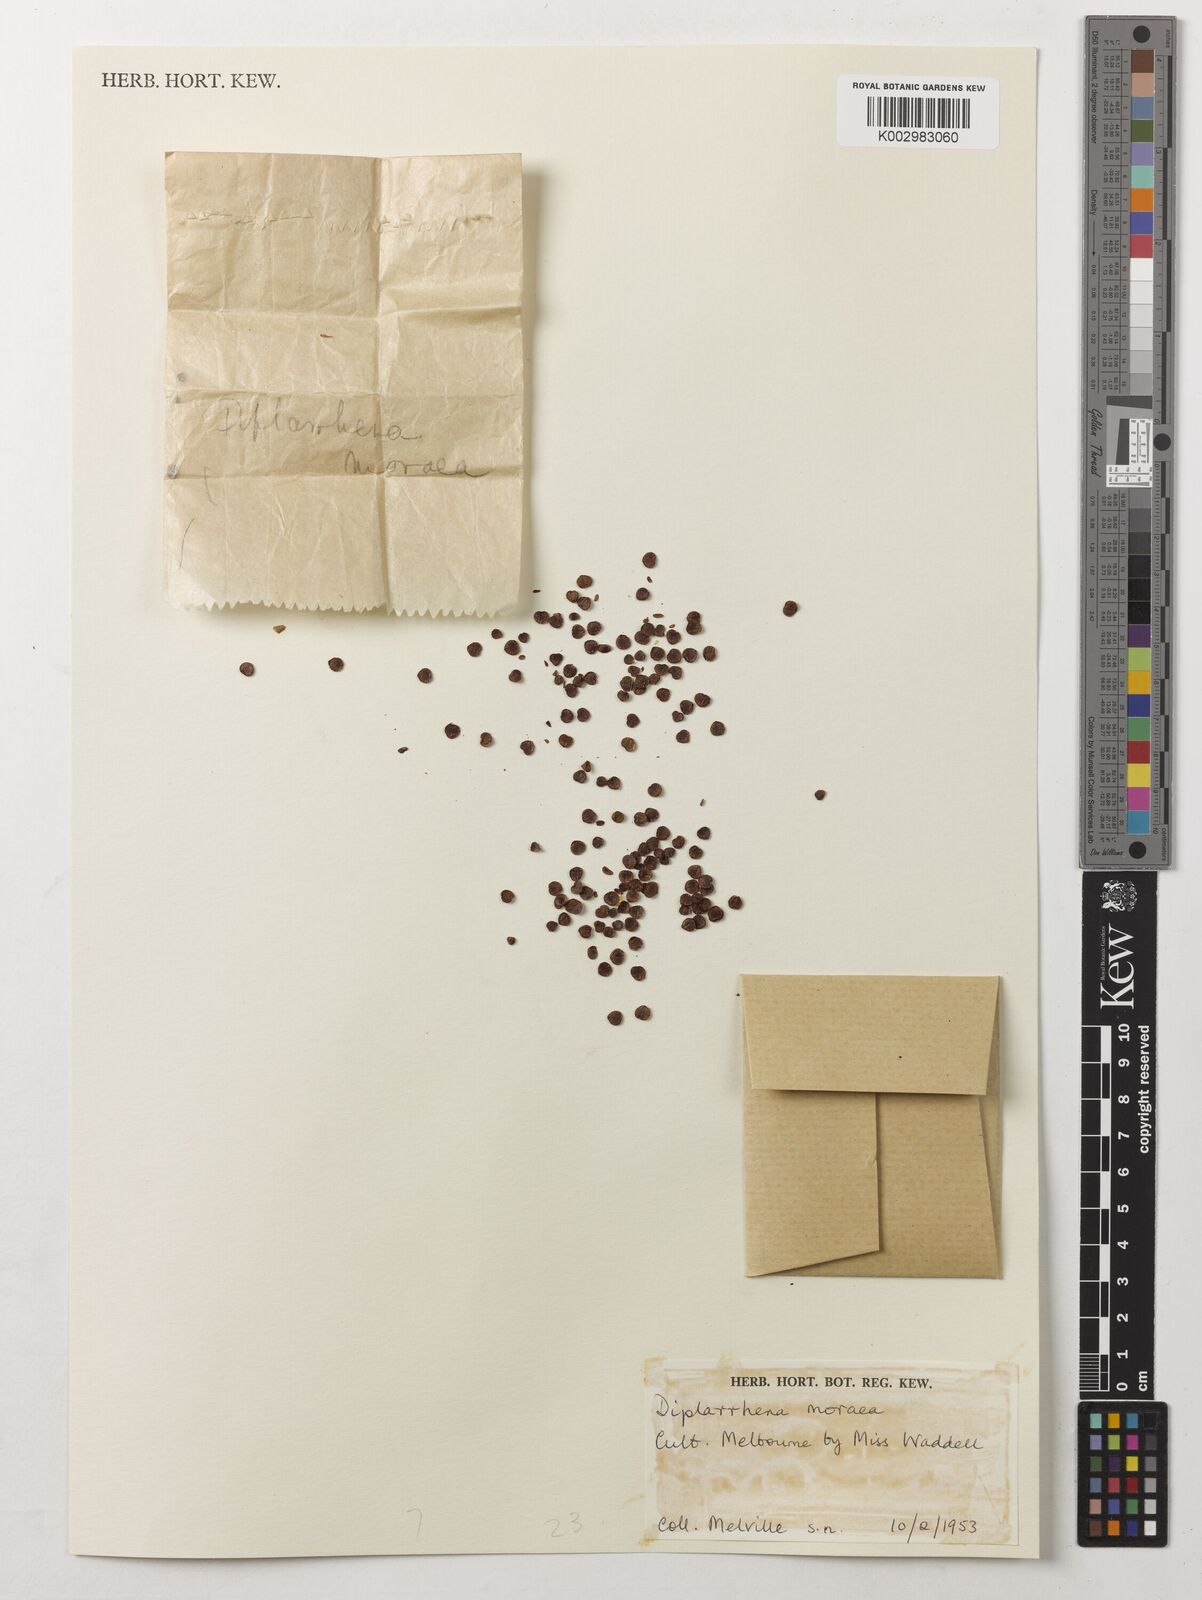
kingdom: Plantae
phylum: Tracheophyta
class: Liliopsida
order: Asparagales
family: Iridaceae
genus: Diplarrena
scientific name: Diplarrena moraea
